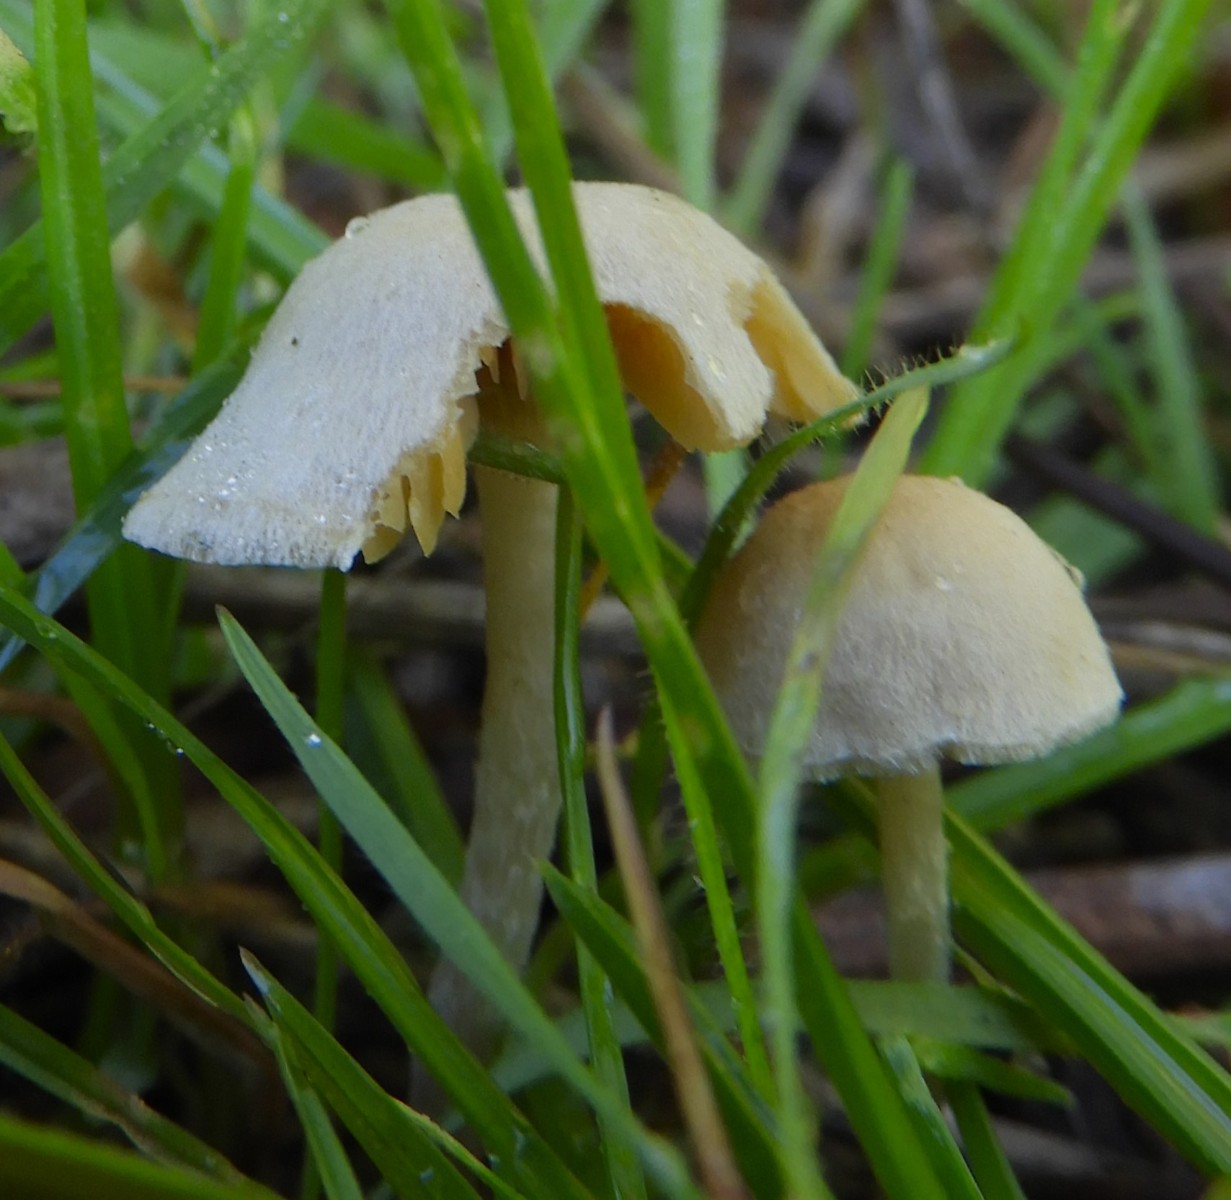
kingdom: Fungi
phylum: Basidiomycota
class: Agaricomycetes
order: Agaricales
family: Tubariaceae
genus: Tubaria
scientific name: Tubaria dispersa
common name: tjørne-fnughat
